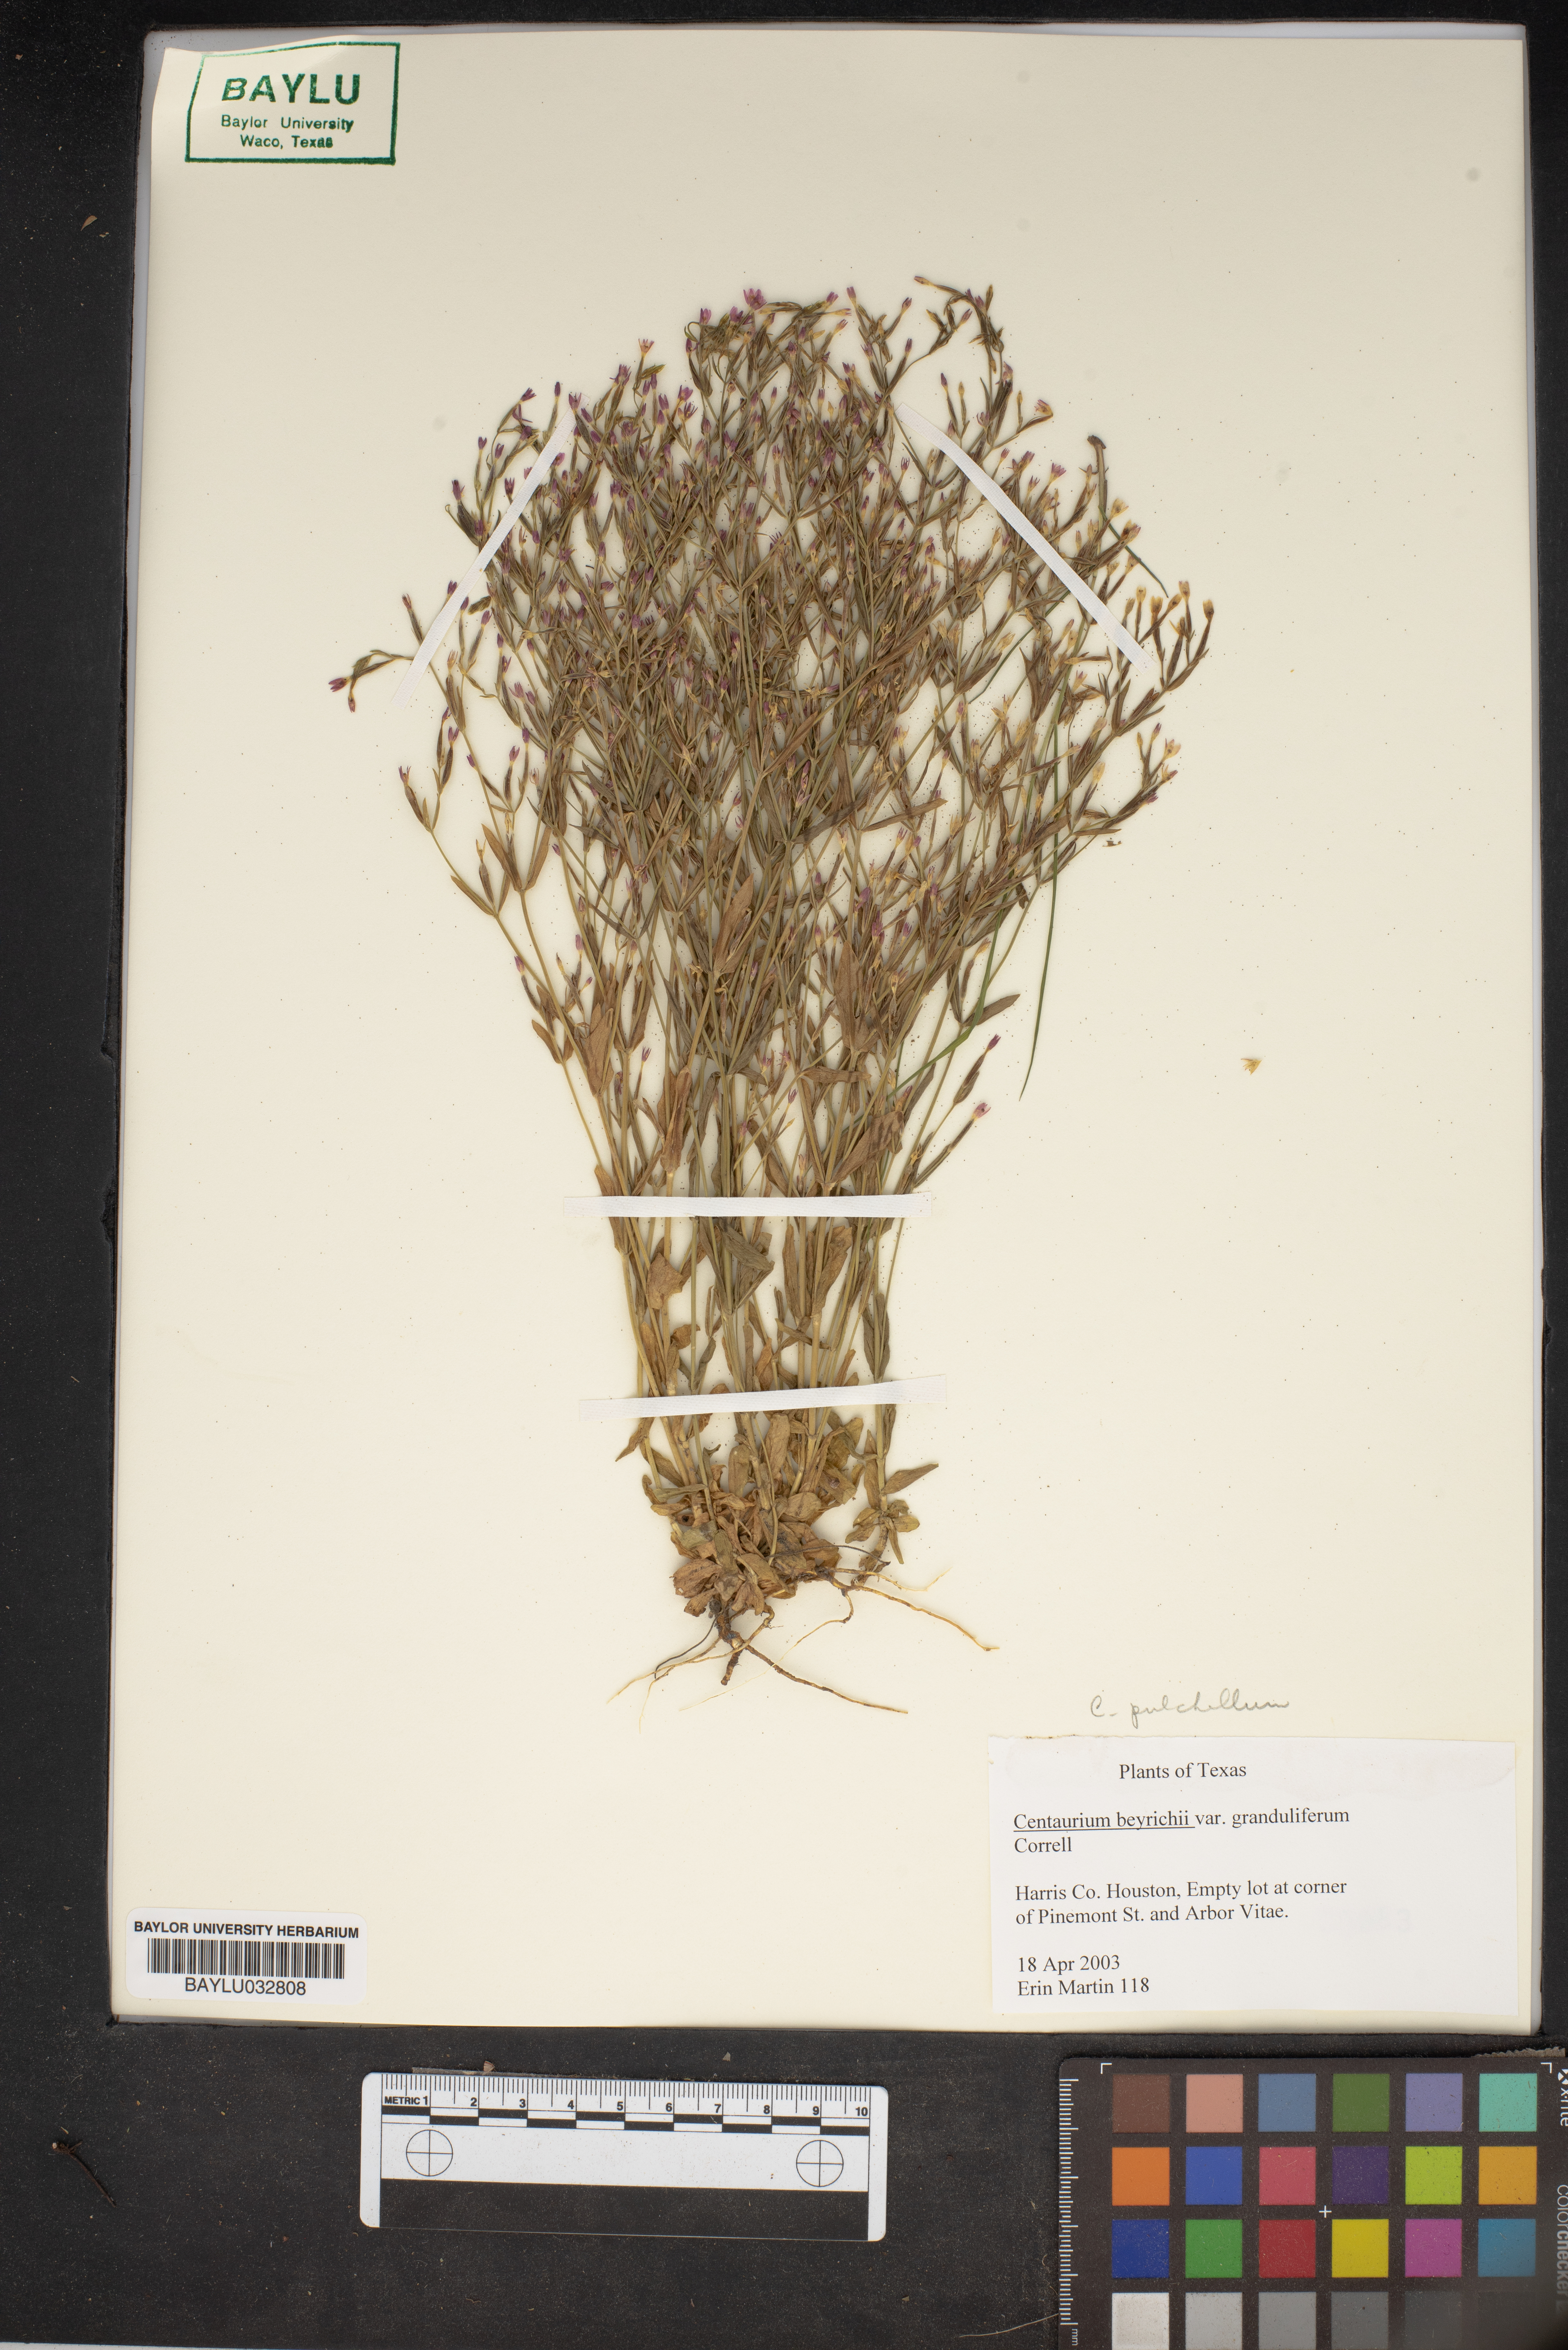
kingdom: Plantae
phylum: Tracheophyta
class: Magnoliopsida
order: Gentianales
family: Gentianaceae
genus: Zeltnera
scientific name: Zeltnera beyrichii
